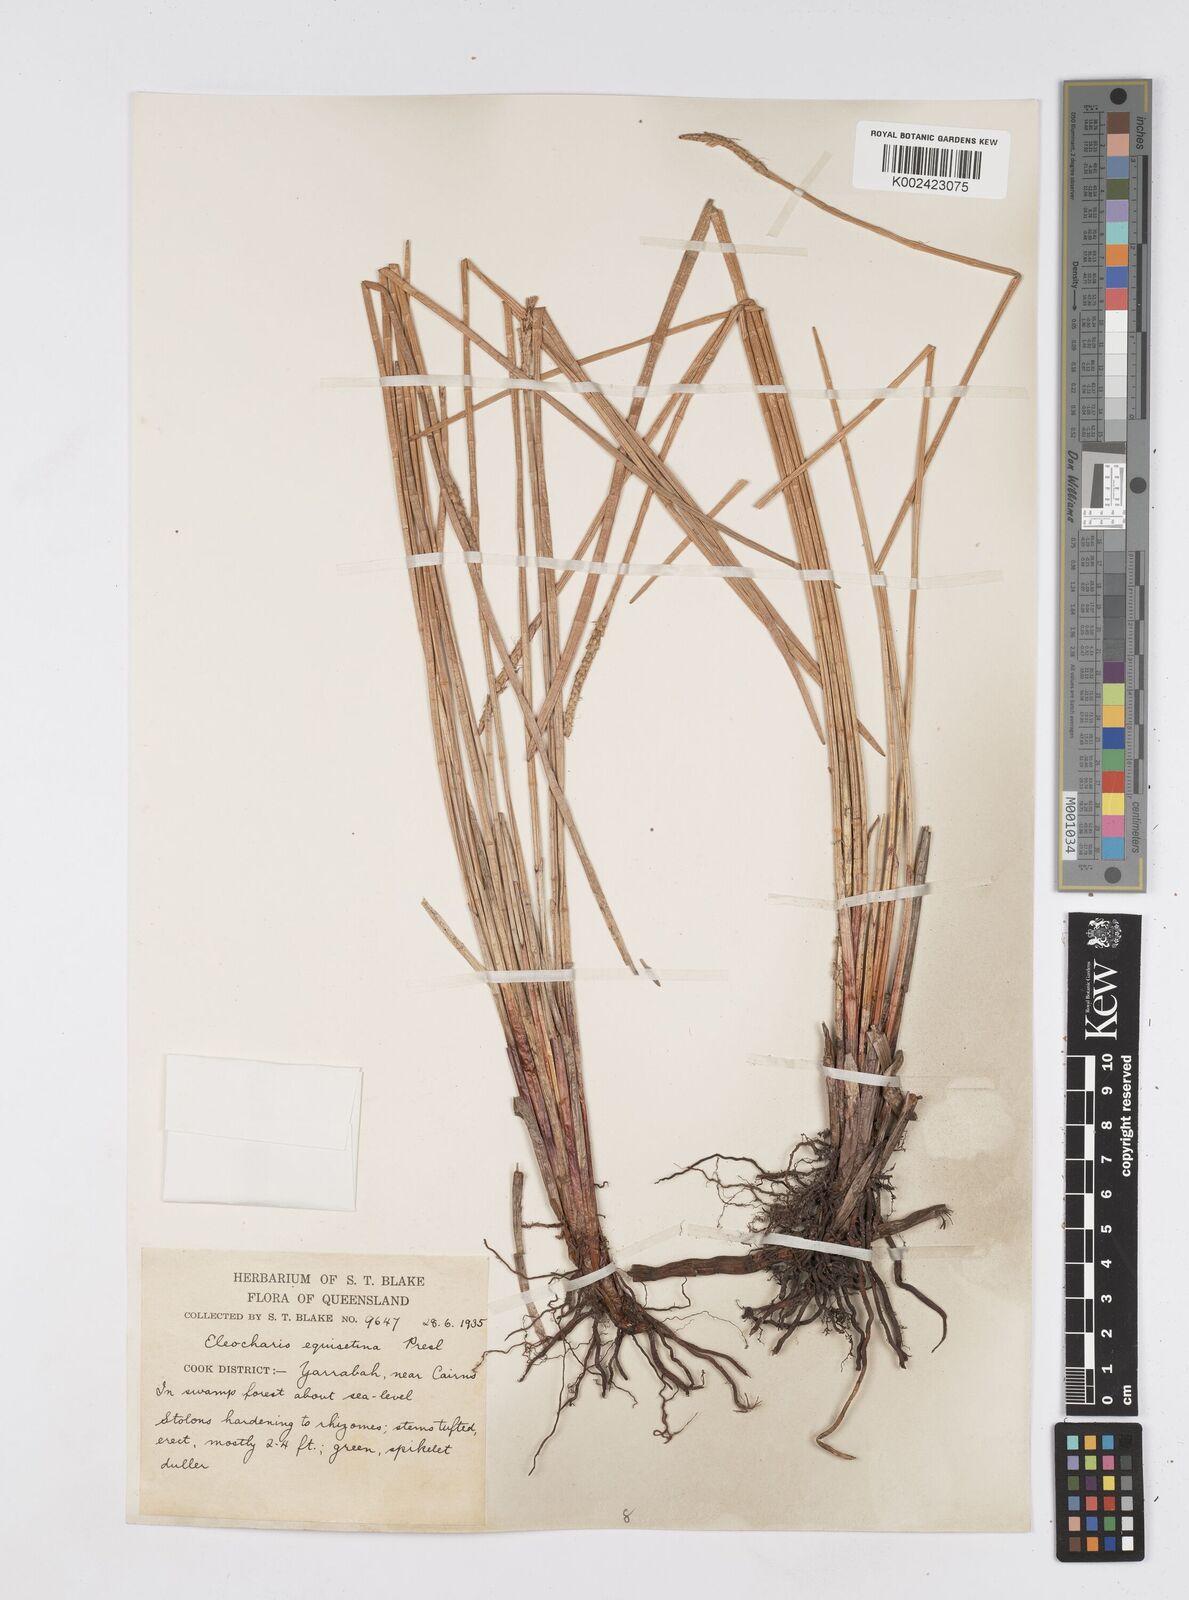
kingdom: Plantae
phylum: Tracheophyta
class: Liliopsida
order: Poales
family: Cyperaceae
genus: Eleocharis
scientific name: Eleocharis dulcis
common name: Chinese water chestnut
